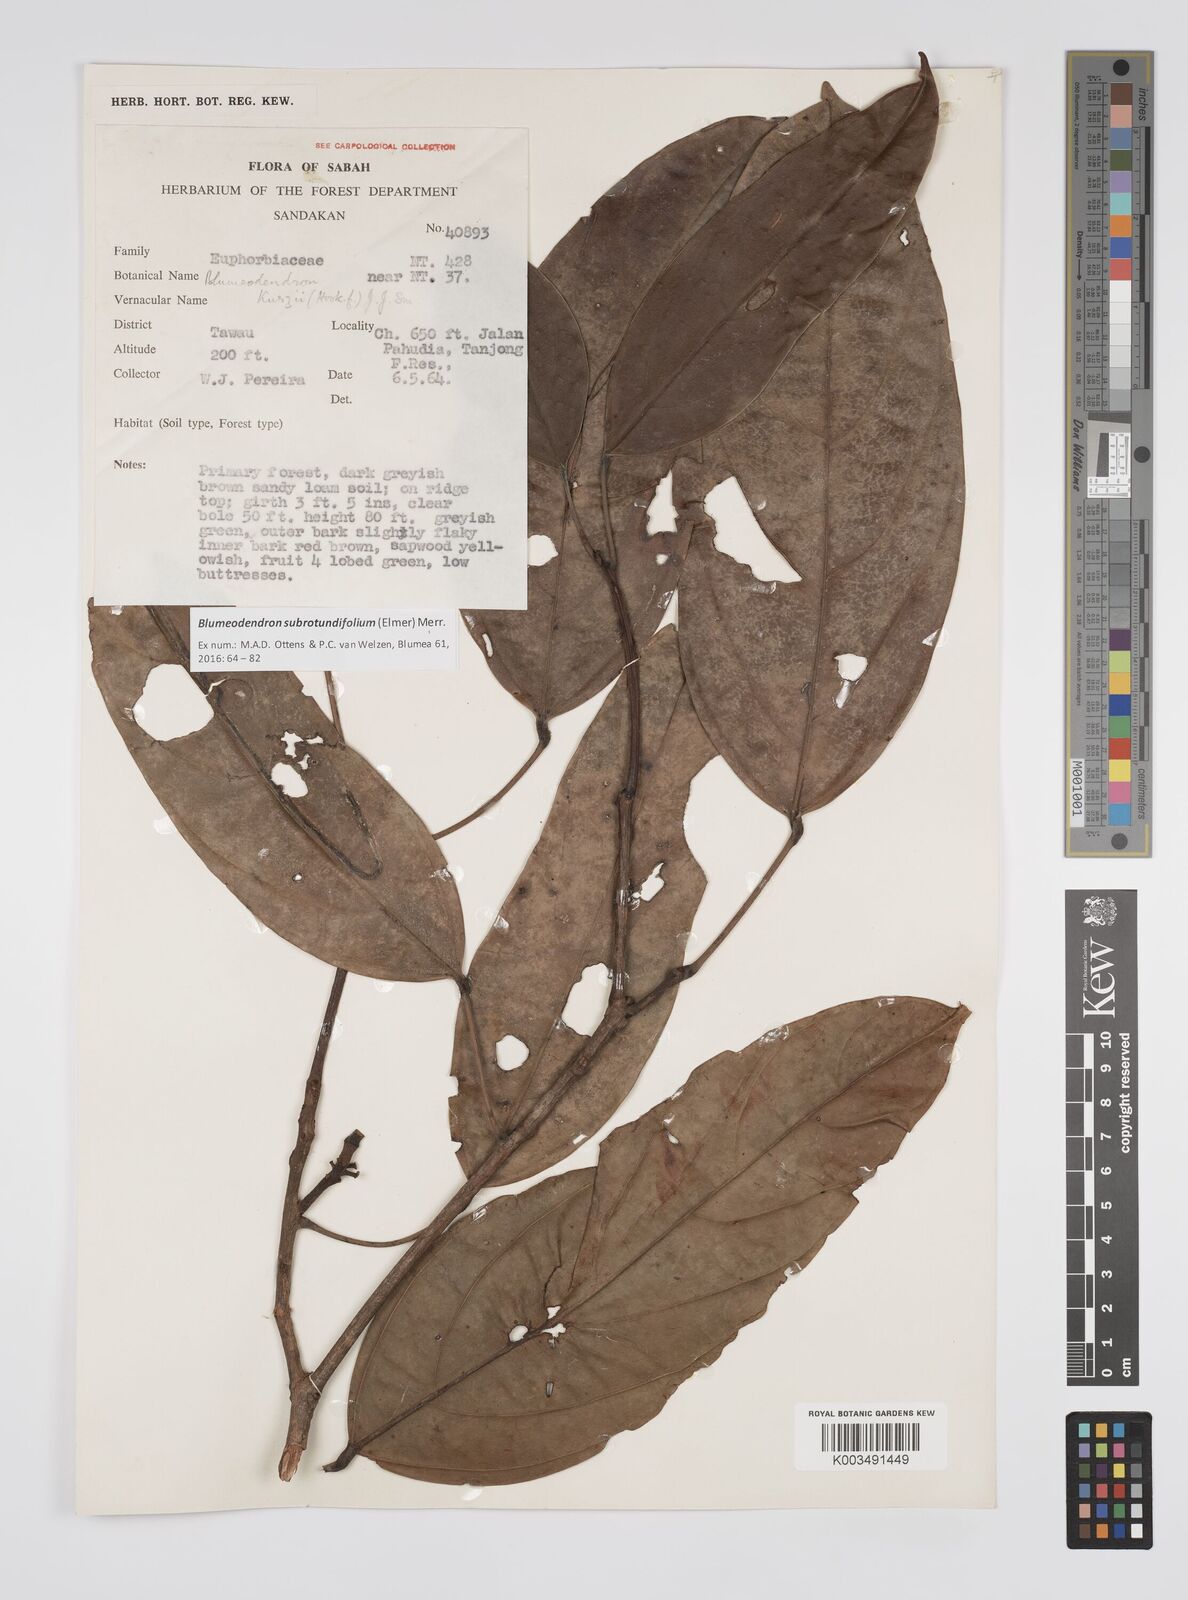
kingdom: Plantae
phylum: Tracheophyta
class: Magnoliopsida
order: Malpighiales
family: Euphorbiaceae
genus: Blumeodendron
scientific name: Blumeodendron subrotundifolium
